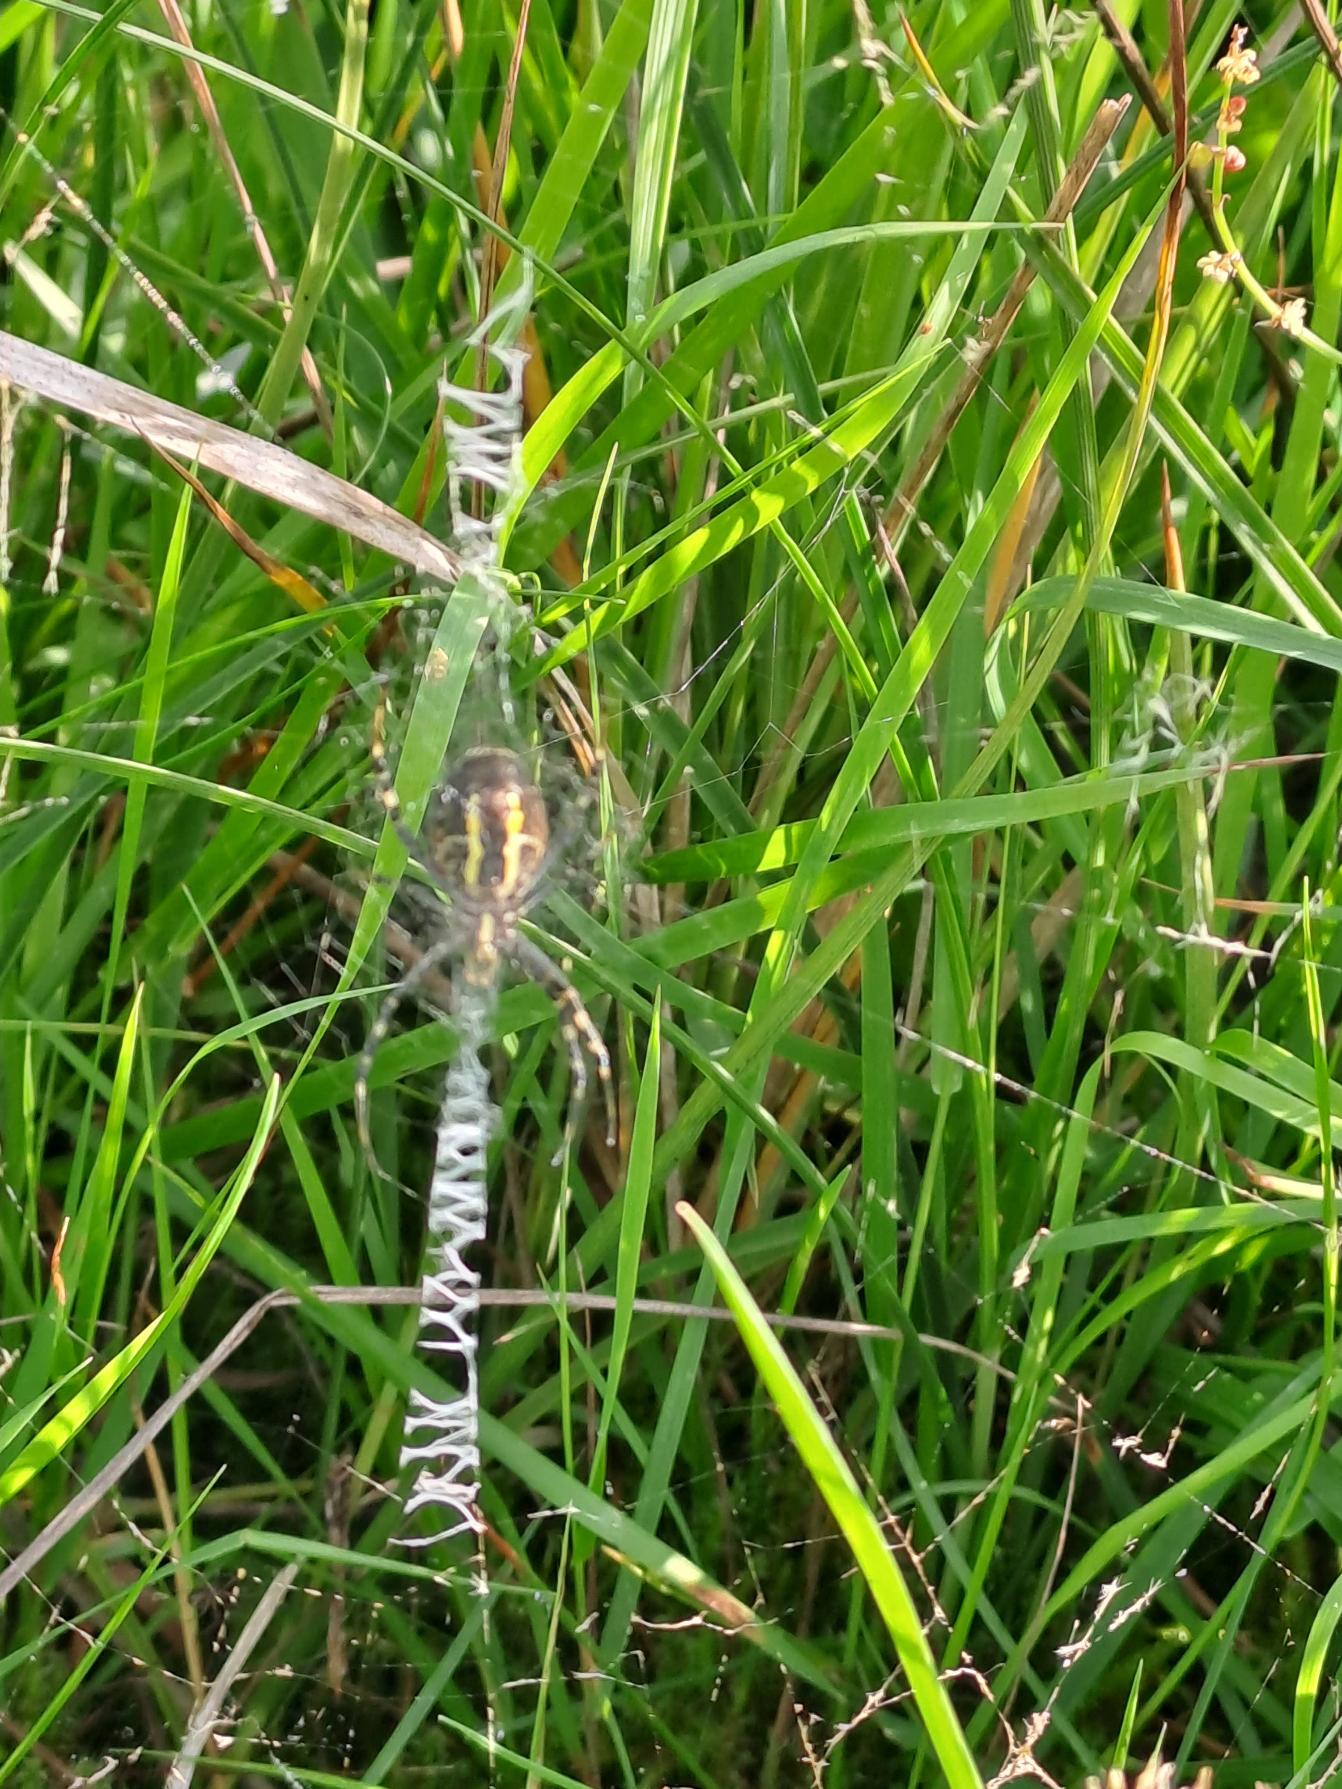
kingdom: Animalia
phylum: Arthropoda
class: Arachnida
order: Araneae
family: Araneidae
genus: Argiope
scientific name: Argiope bruennichi
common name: Hvepseedderkop
